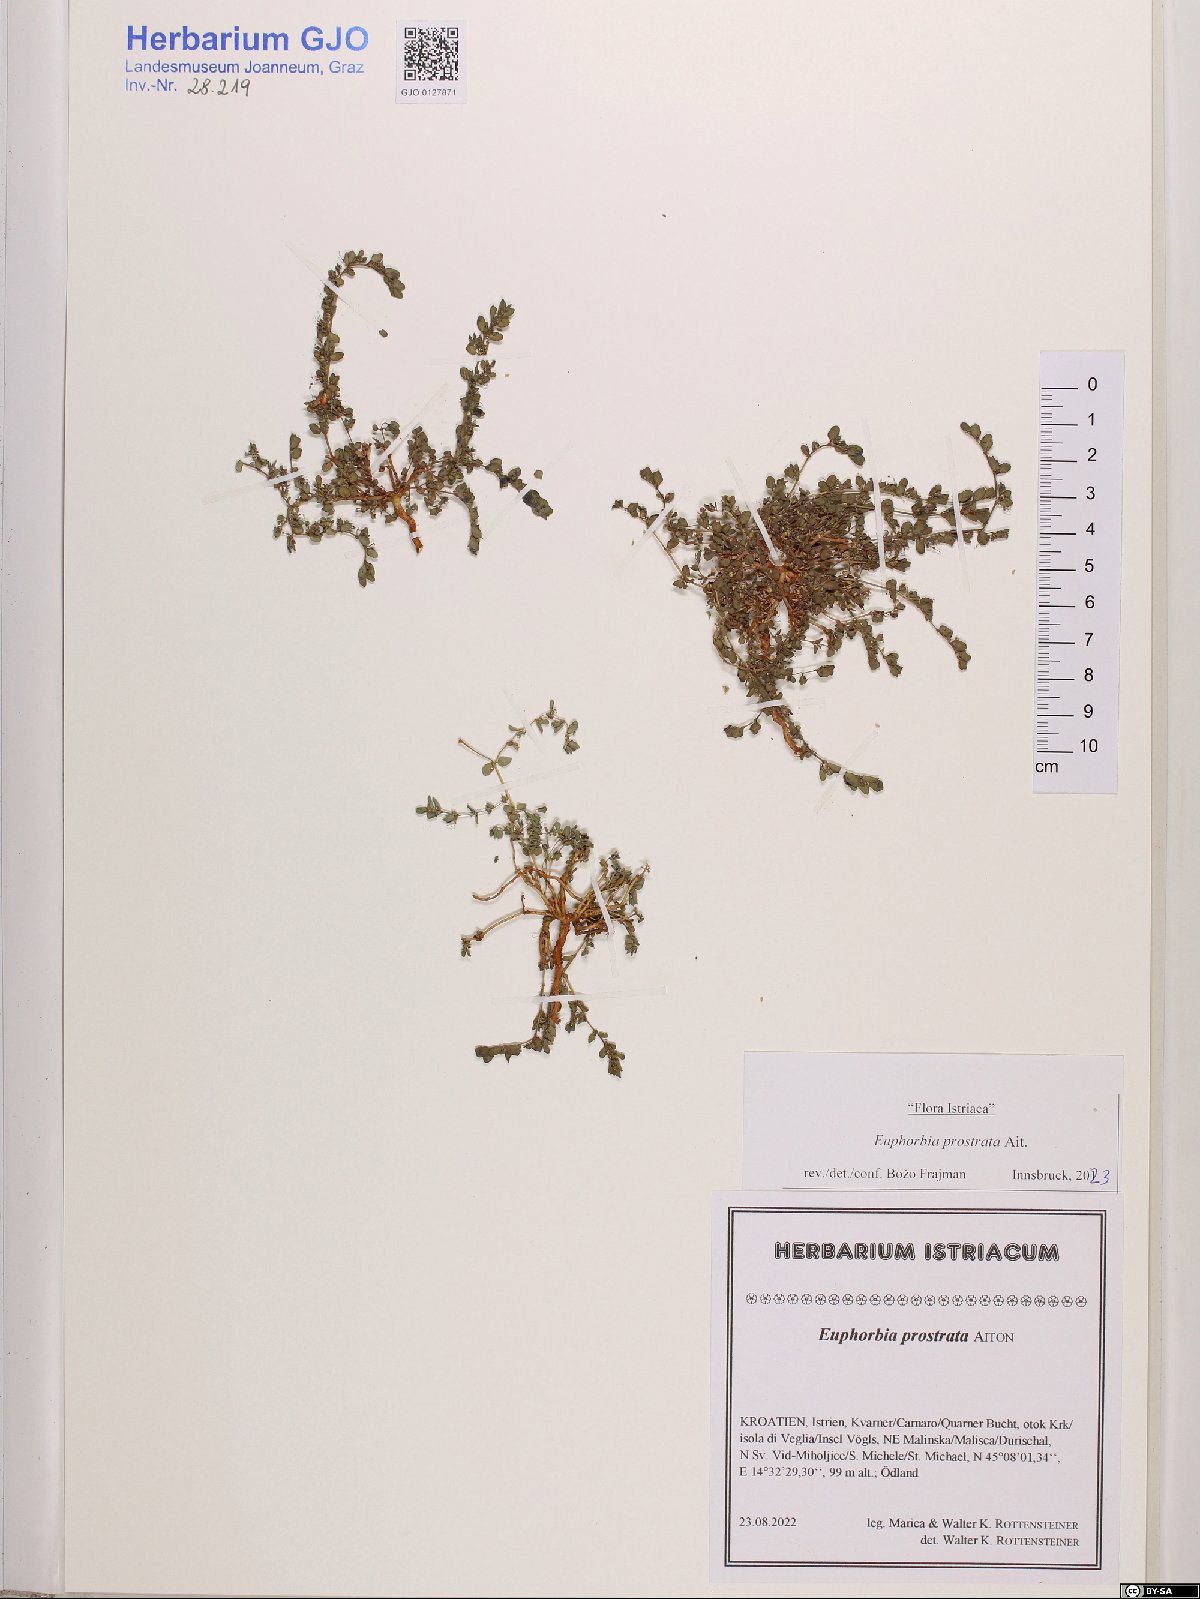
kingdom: Plantae
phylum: Tracheophyta
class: Magnoliopsida
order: Malpighiales
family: Euphorbiaceae
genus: Euphorbia
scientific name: Euphorbia prostrata
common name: Prostrate sandmat
